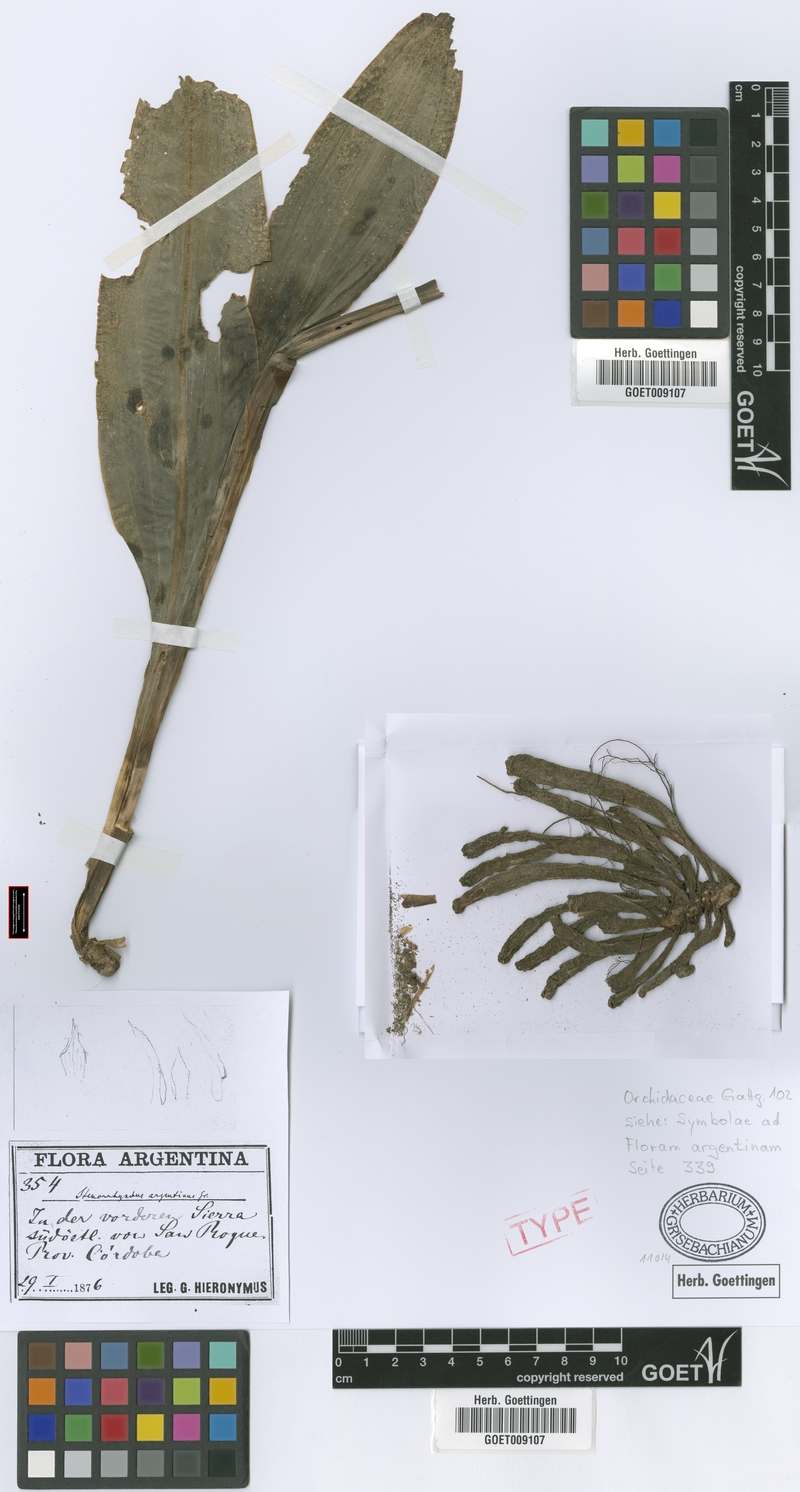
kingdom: Plantae
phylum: Tracheophyta
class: Liliopsida
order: Asparagales
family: Orchidaceae
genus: Sacoila
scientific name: Sacoila argentina
